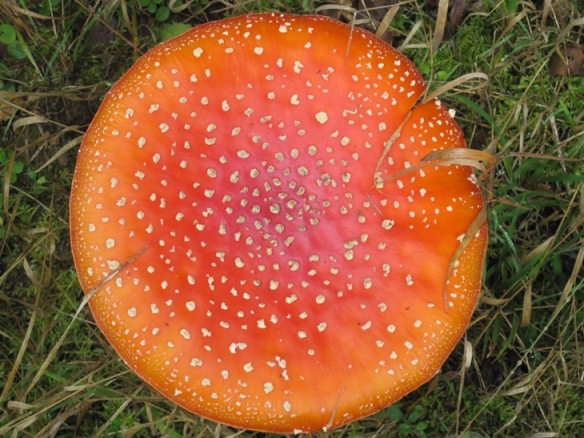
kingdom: Fungi
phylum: Basidiomycota
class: Agaricomycetes
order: Agaricales
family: Amanitaceae
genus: Amanita
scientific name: Amanita muscaria
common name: rød fluesvamp
